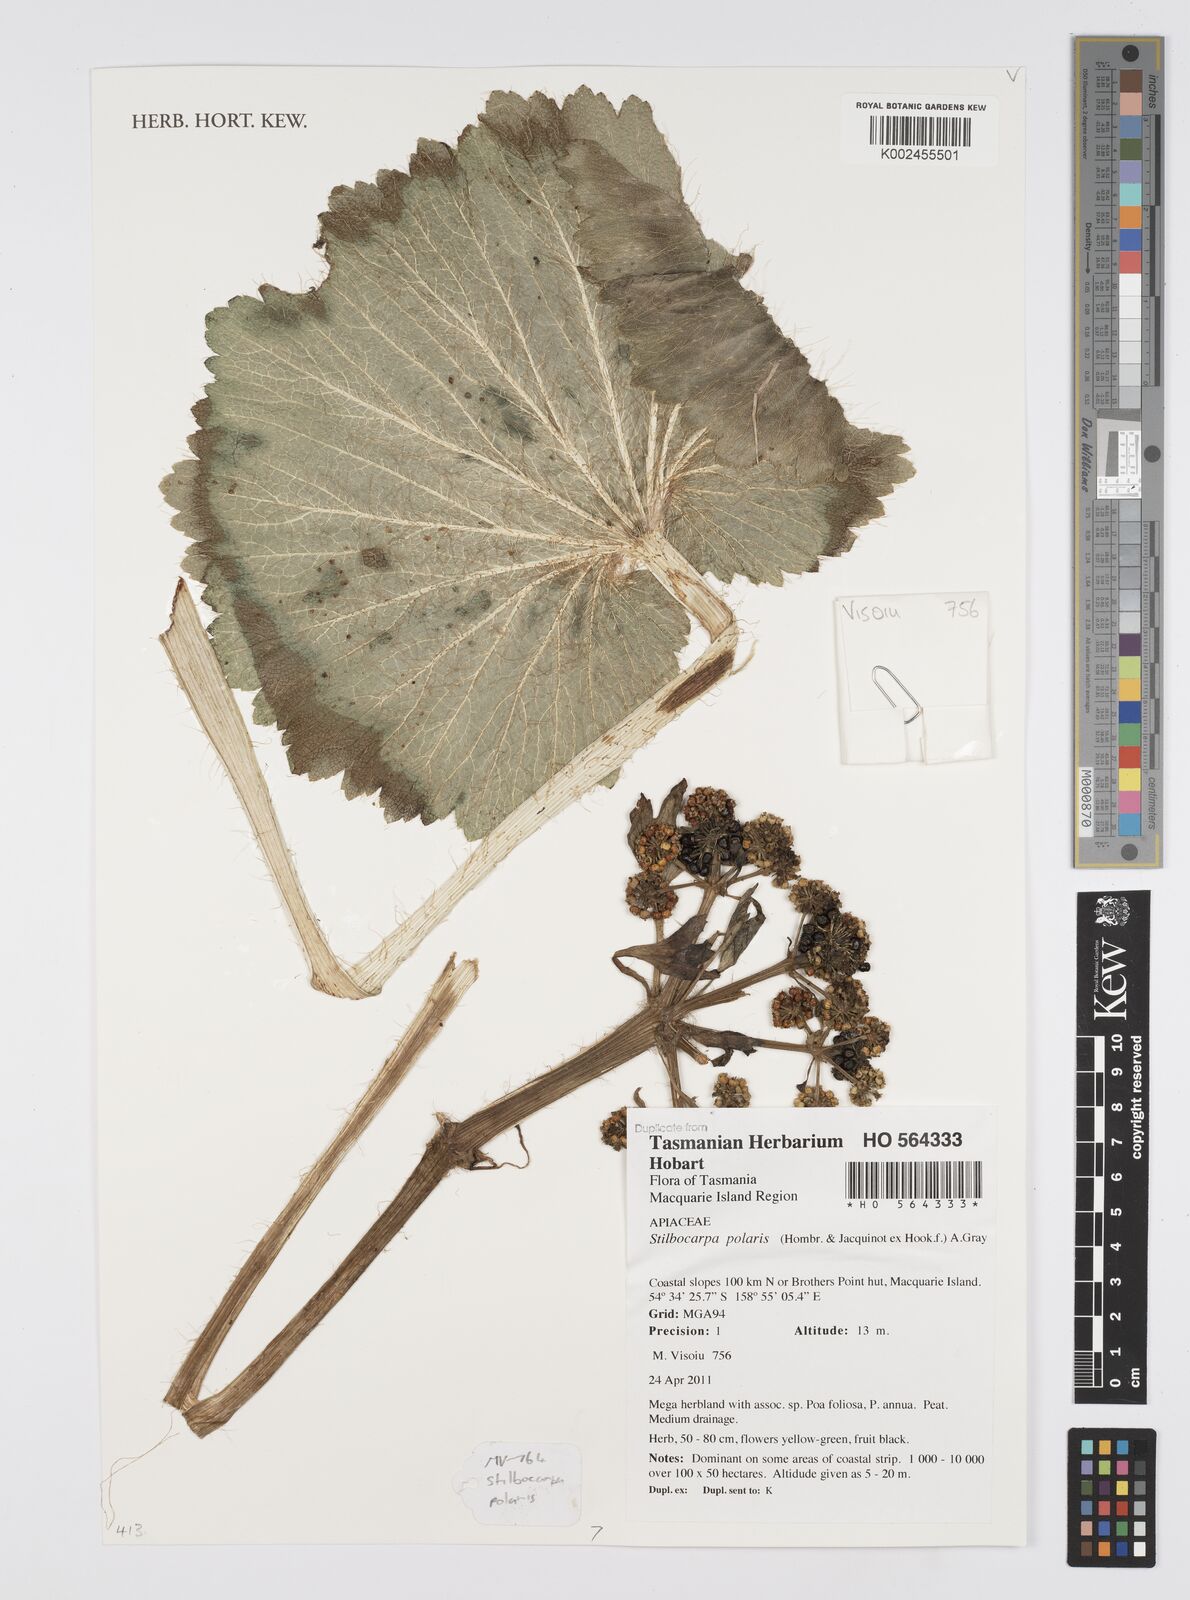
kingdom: Plantae
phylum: Tracheophyta
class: Magnoliopsida
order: Apiales
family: Apiaceae
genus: Azorella
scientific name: Azorella polaris
